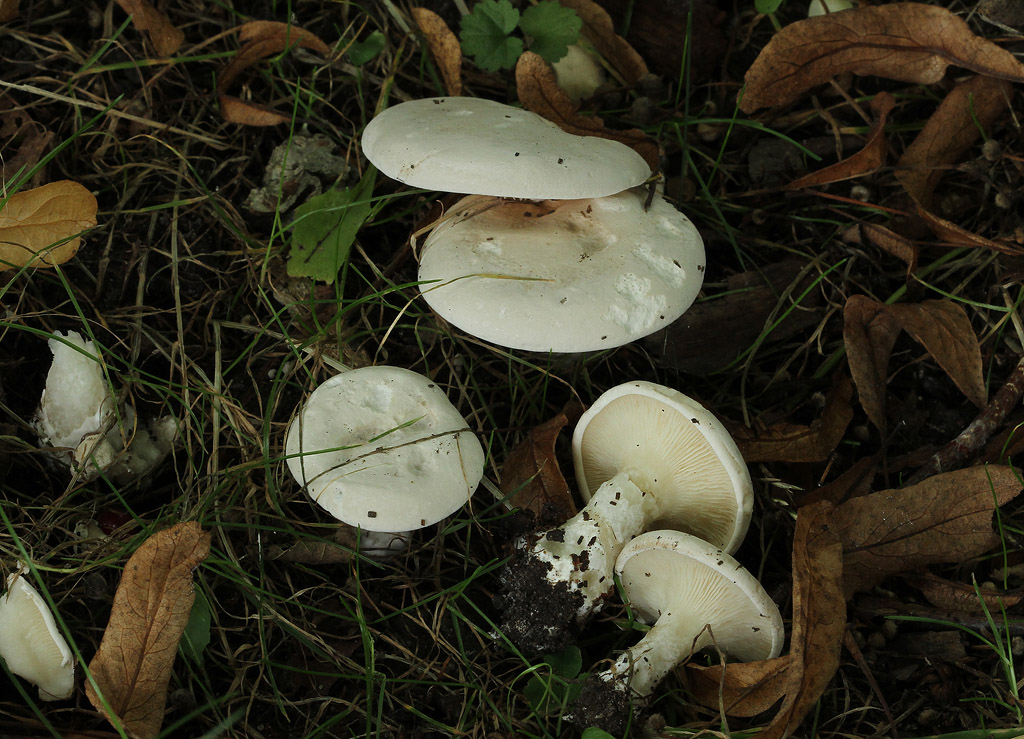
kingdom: Fungi
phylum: Basidiomycota
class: Agaricomycetes
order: Agaricales
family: Entolomataceae
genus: Clitopilus
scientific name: Clitopilus prunulus
